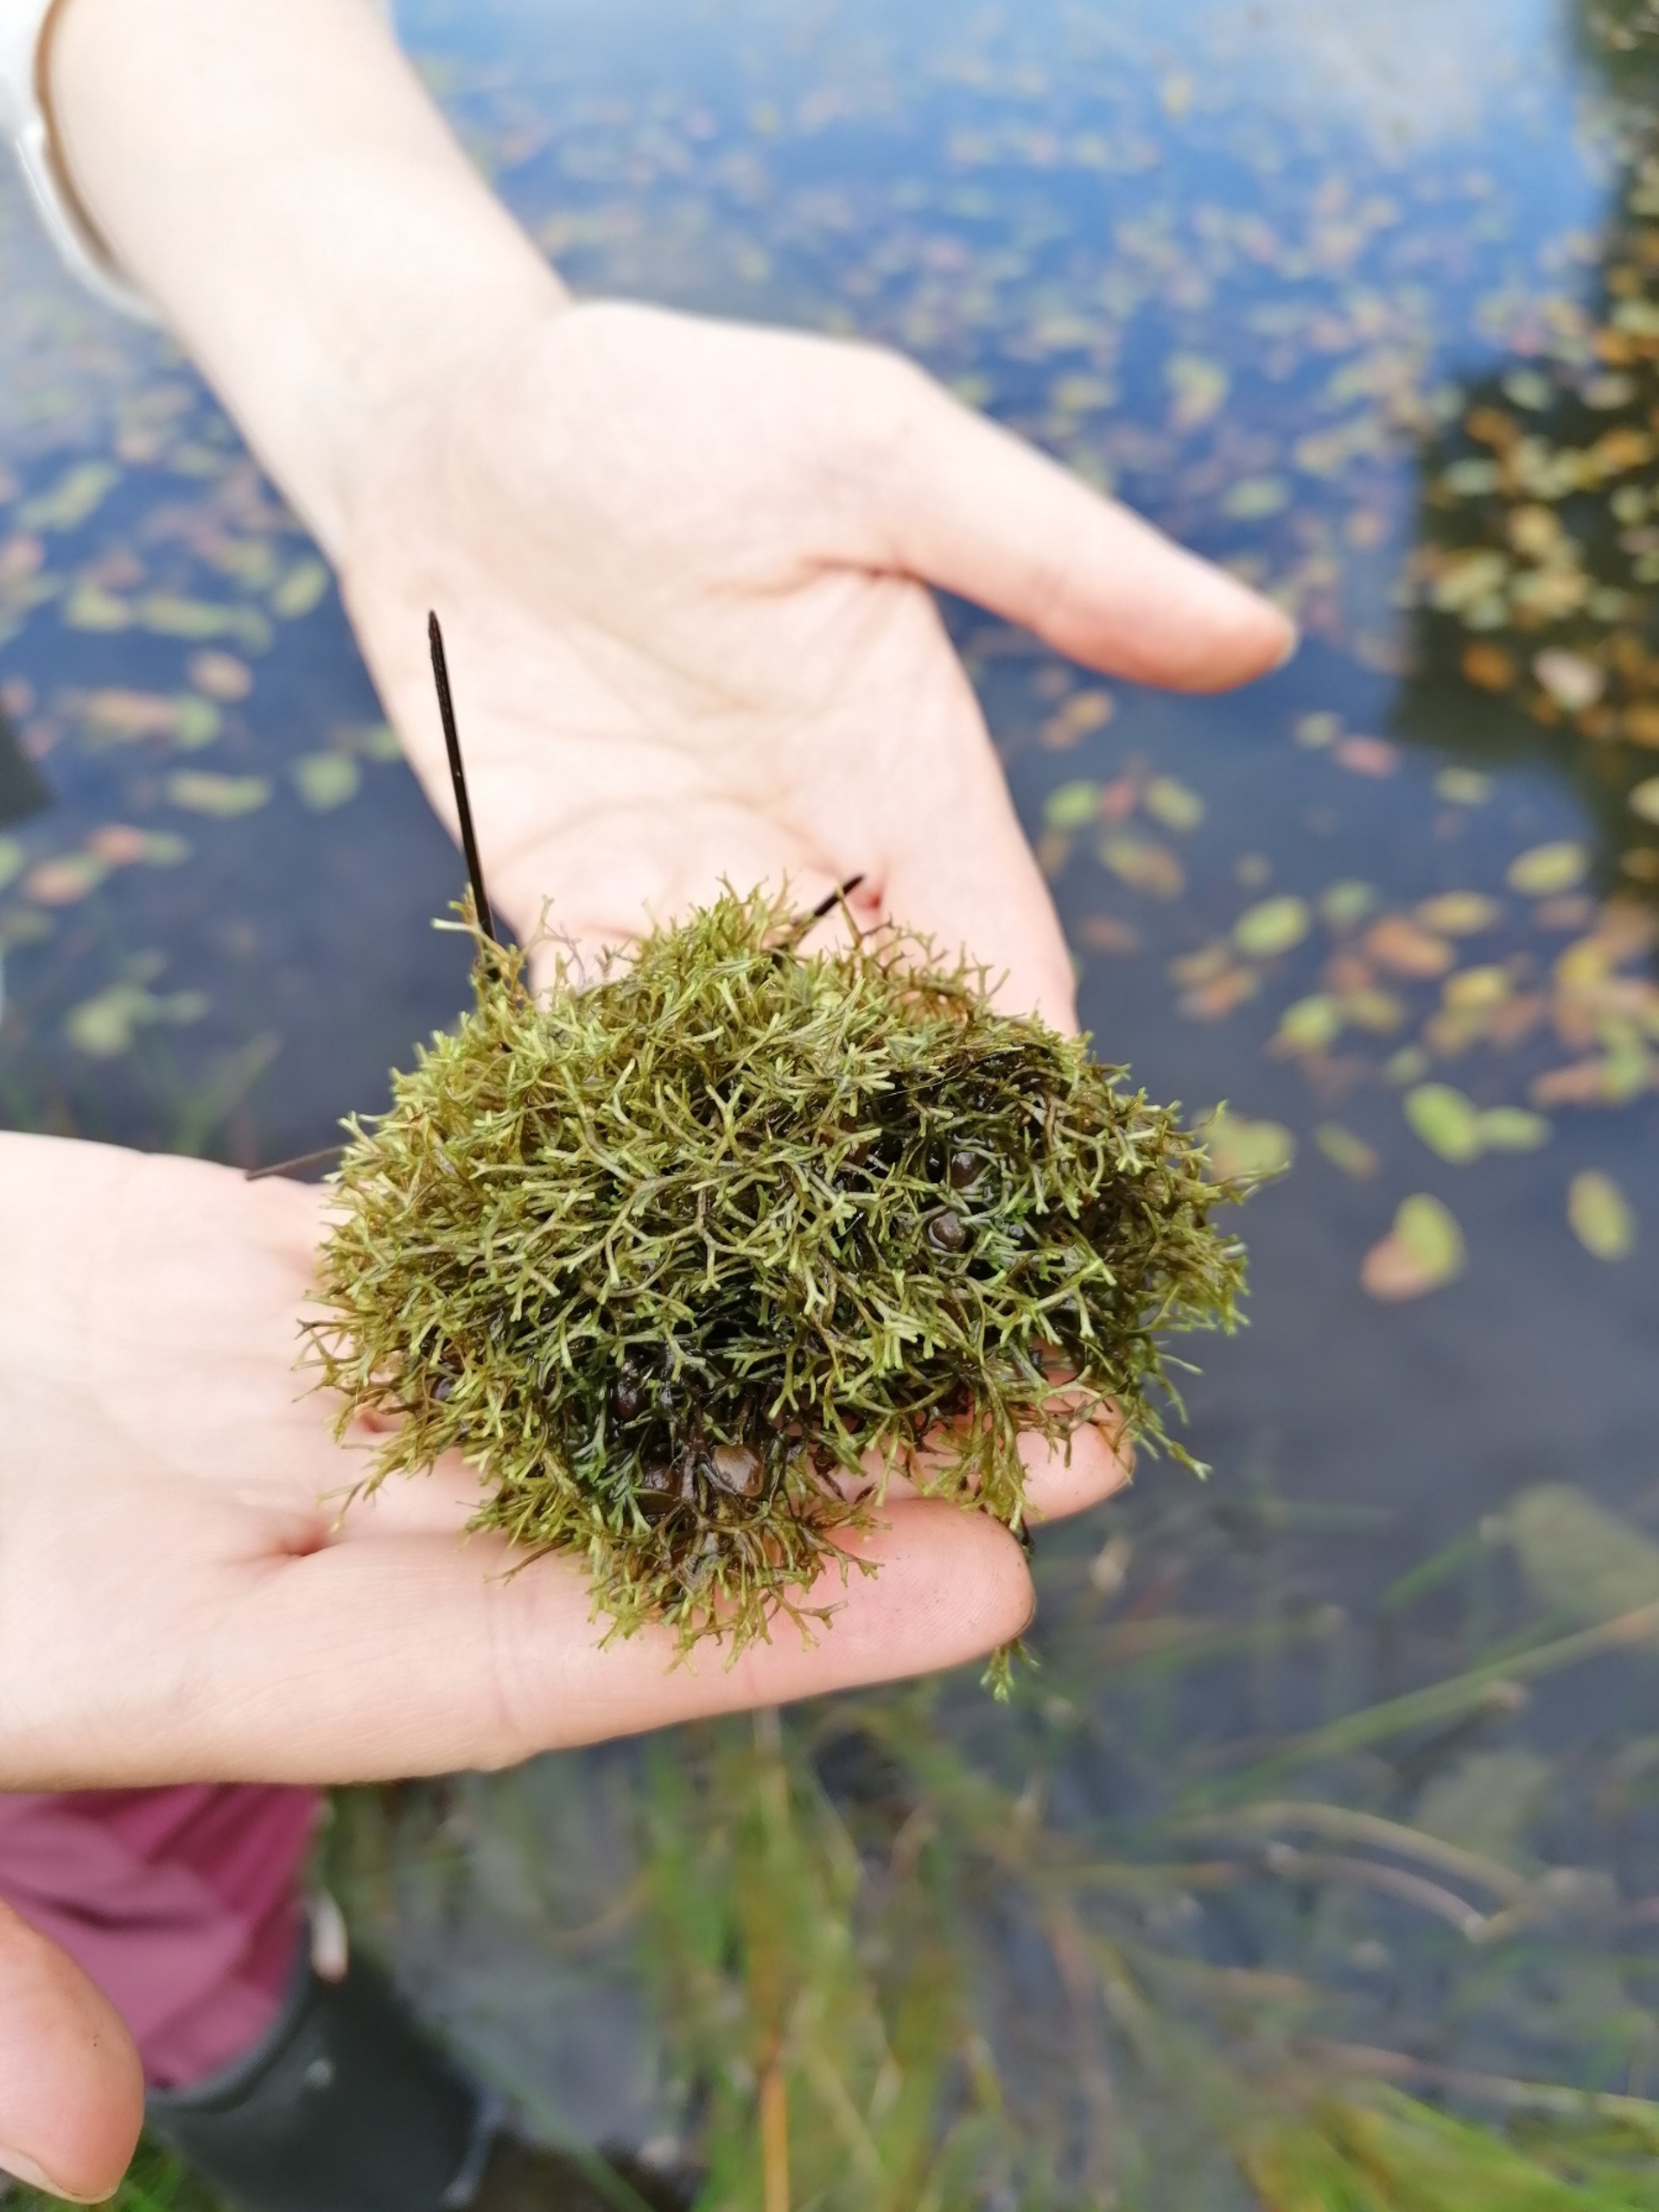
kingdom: Plantae
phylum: Marchantiophyta
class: Marchantiopsida
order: Marchantiales
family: Ricciaceae
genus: Riccia
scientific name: Riccia fluitans
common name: Svømmende stjerneløv
